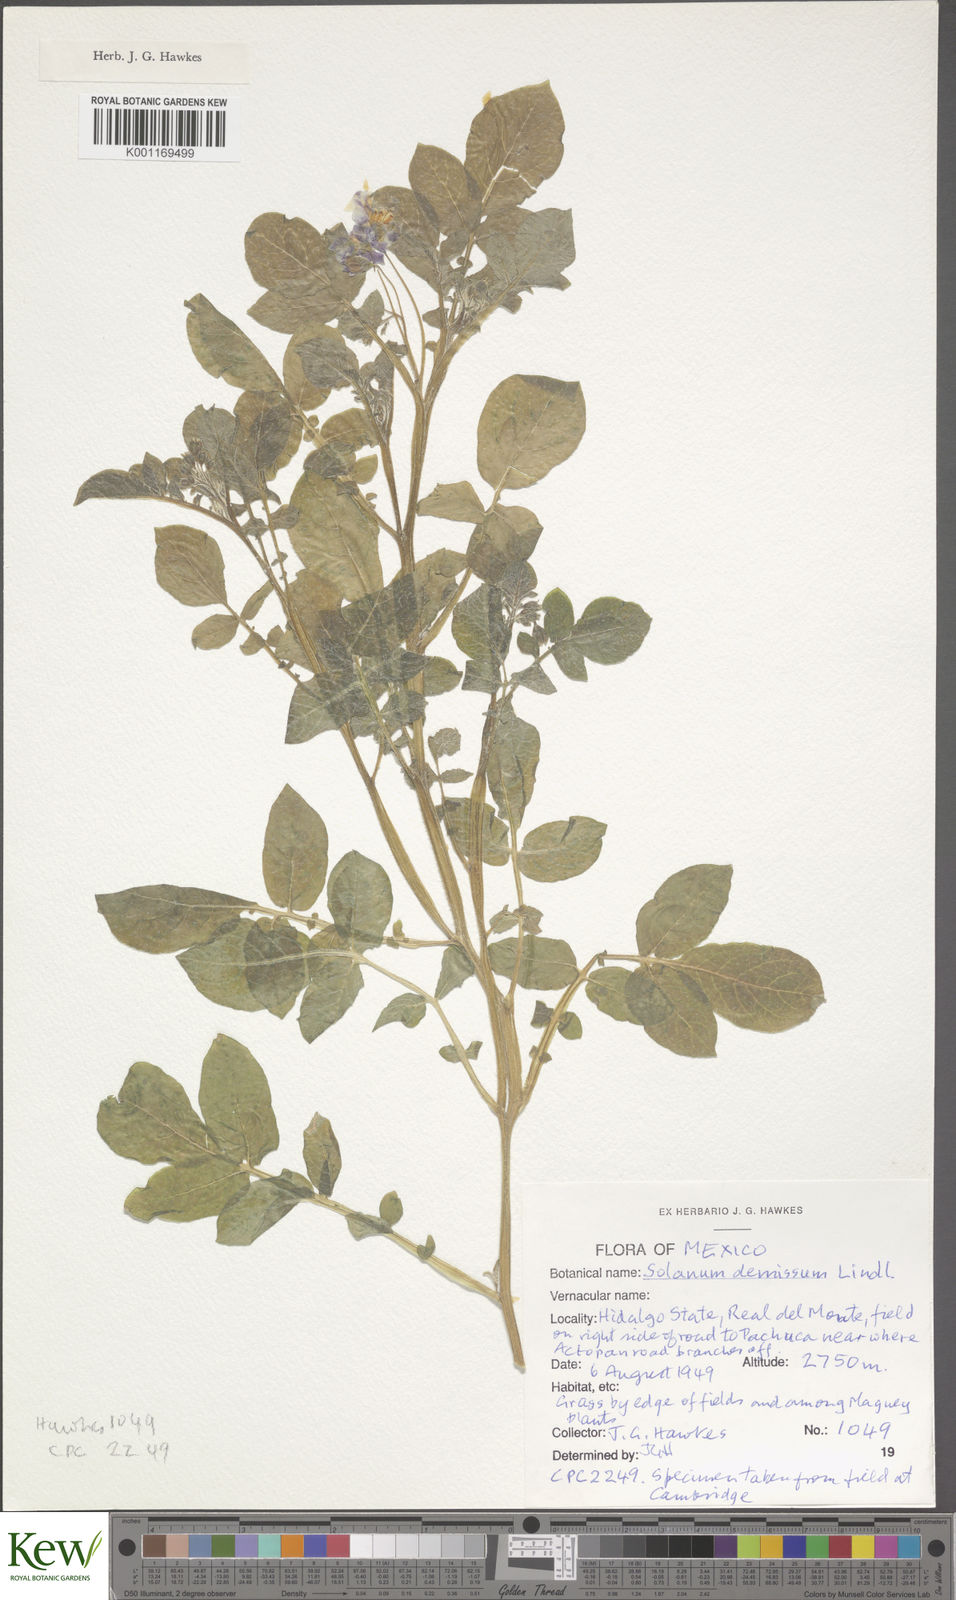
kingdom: Plantae
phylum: Tracheophyta
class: Magnoliopsida
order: Solanales
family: Solanaceae
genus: Solanum
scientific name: Solanum demissum
